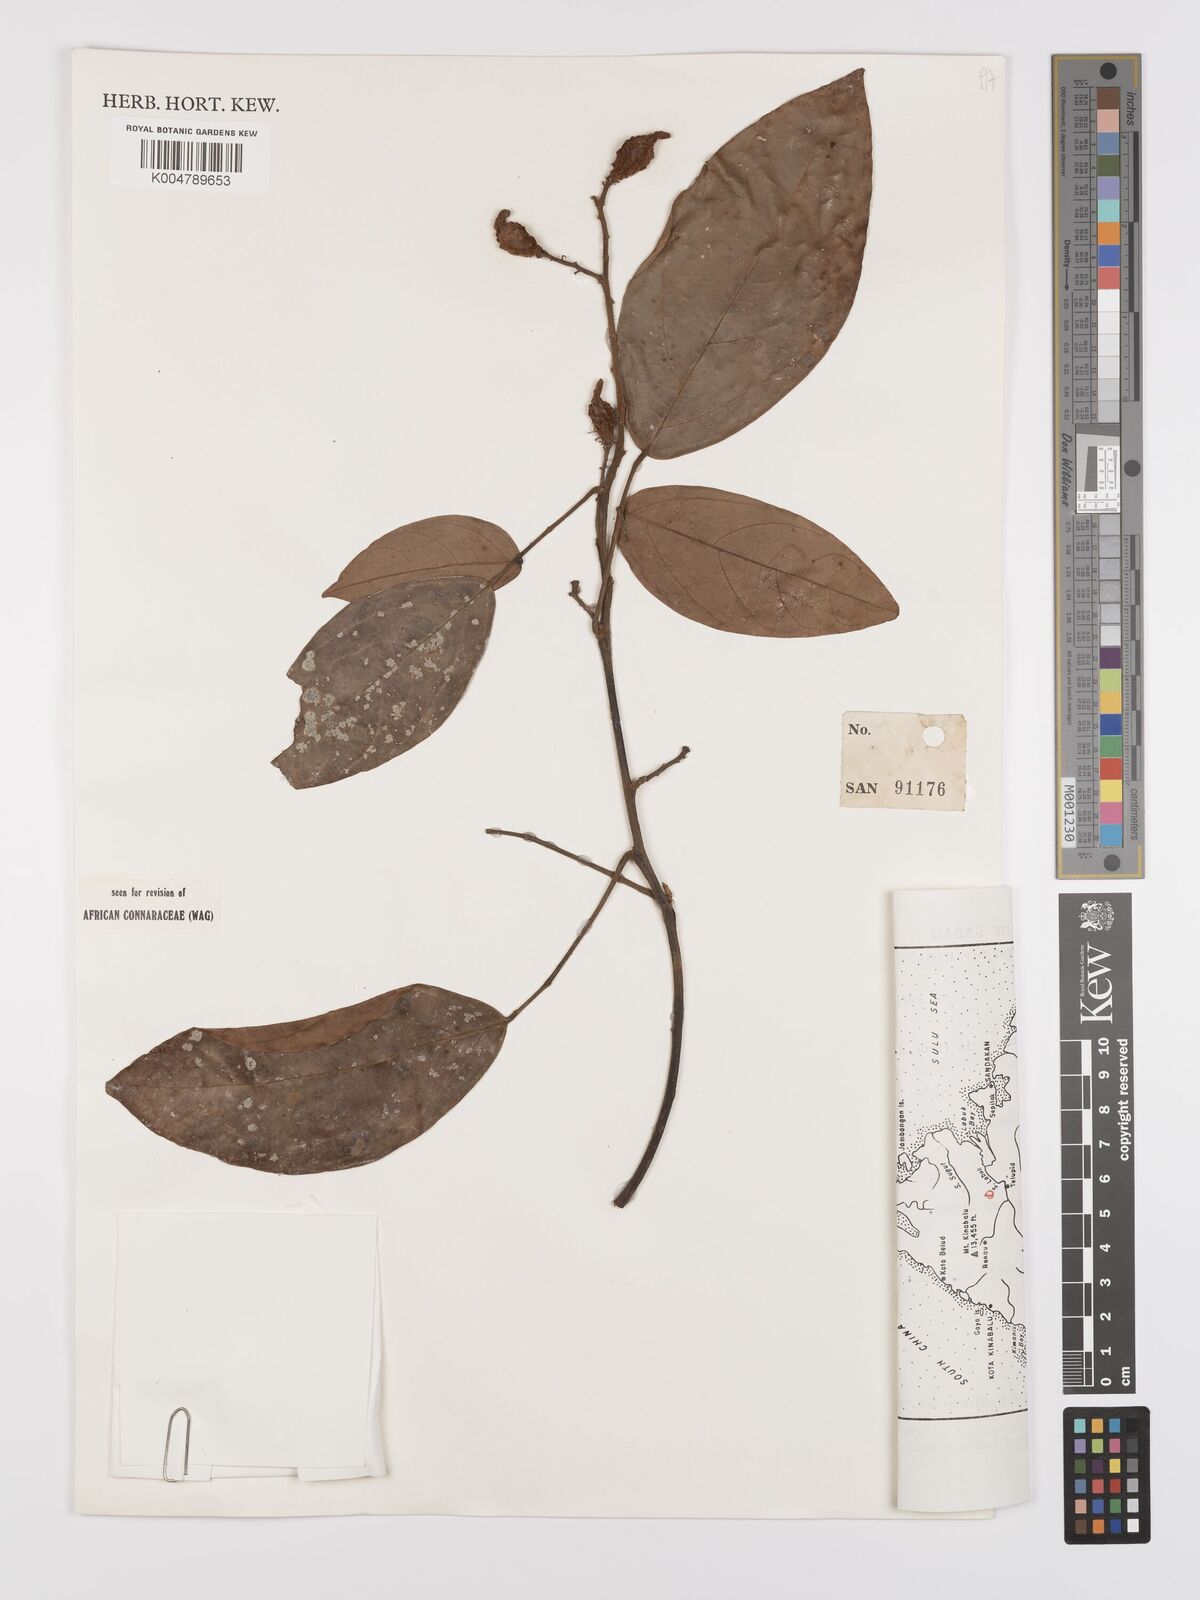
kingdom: Plantae
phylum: Tracheophyta
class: Magnoliopsida
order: Oxalidales
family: Connaraceae
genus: Agelaea
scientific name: Agelaea borneensis
